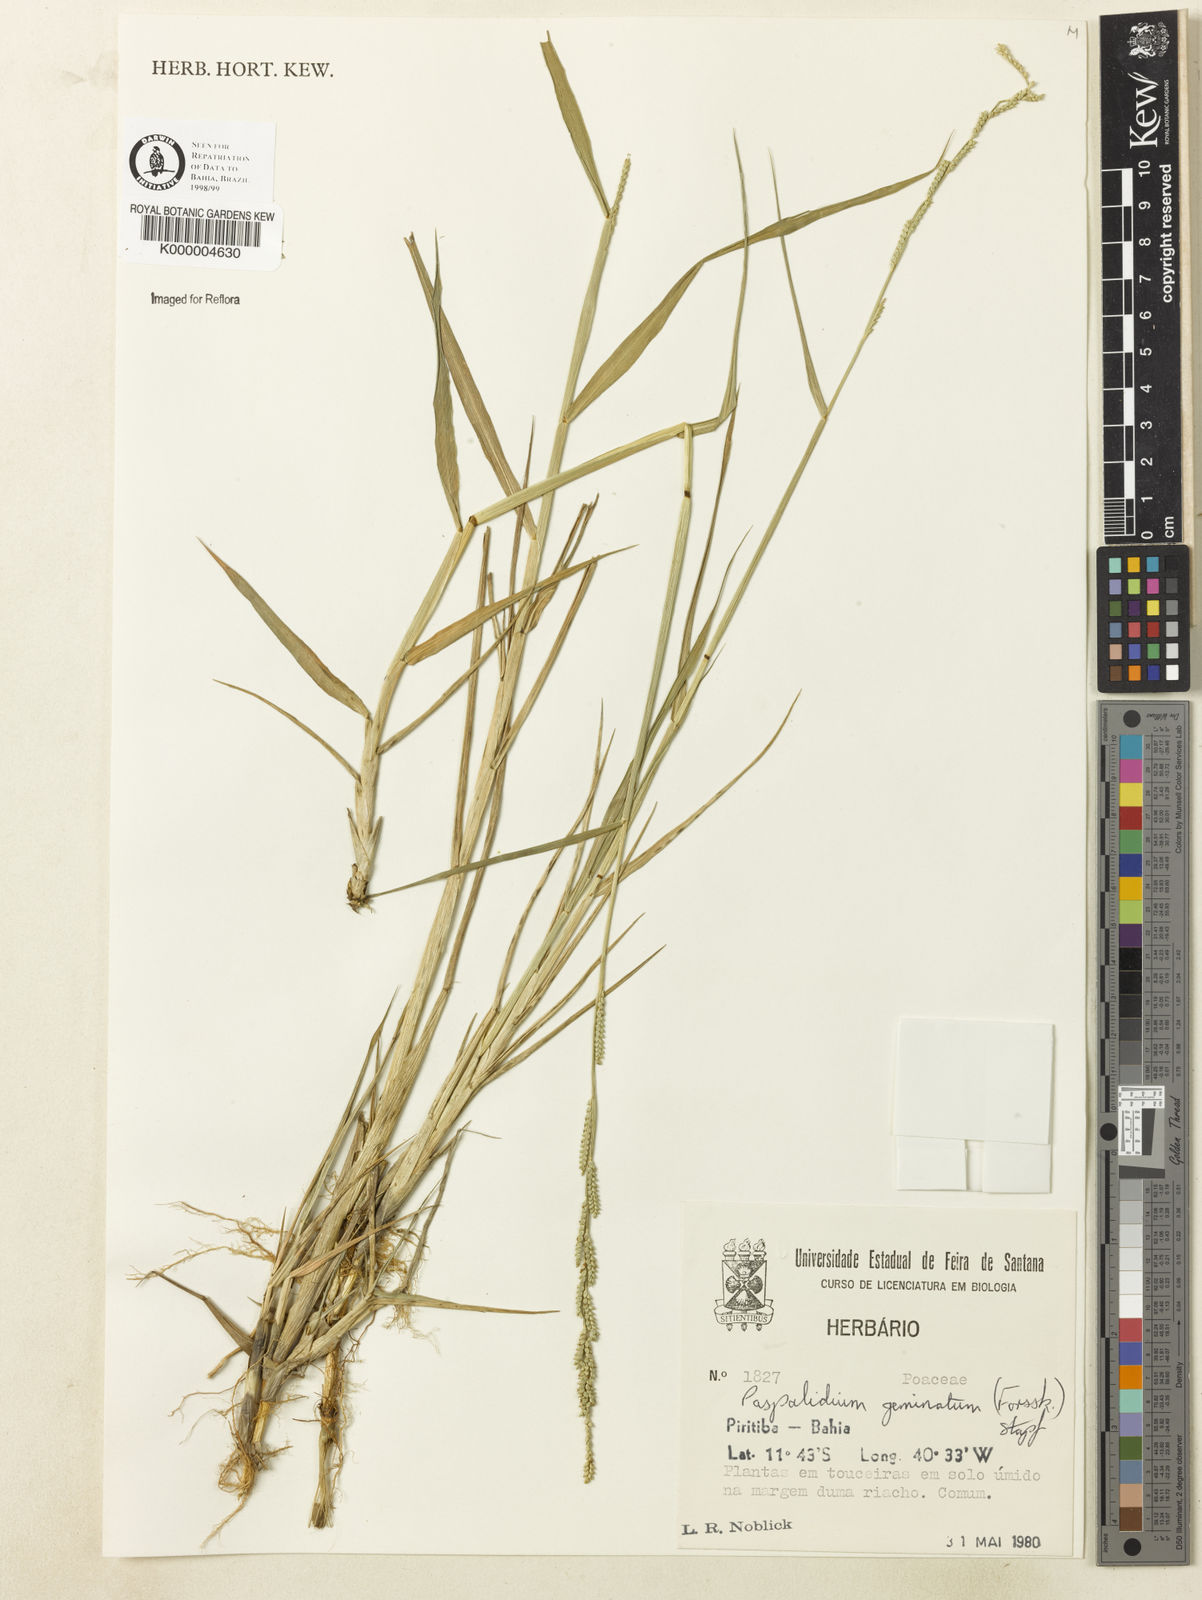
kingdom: Plantae
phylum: Tracheophyta
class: Liliopsida
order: Poales
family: Poaceae
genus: Setaria
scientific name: Setaria geminata
